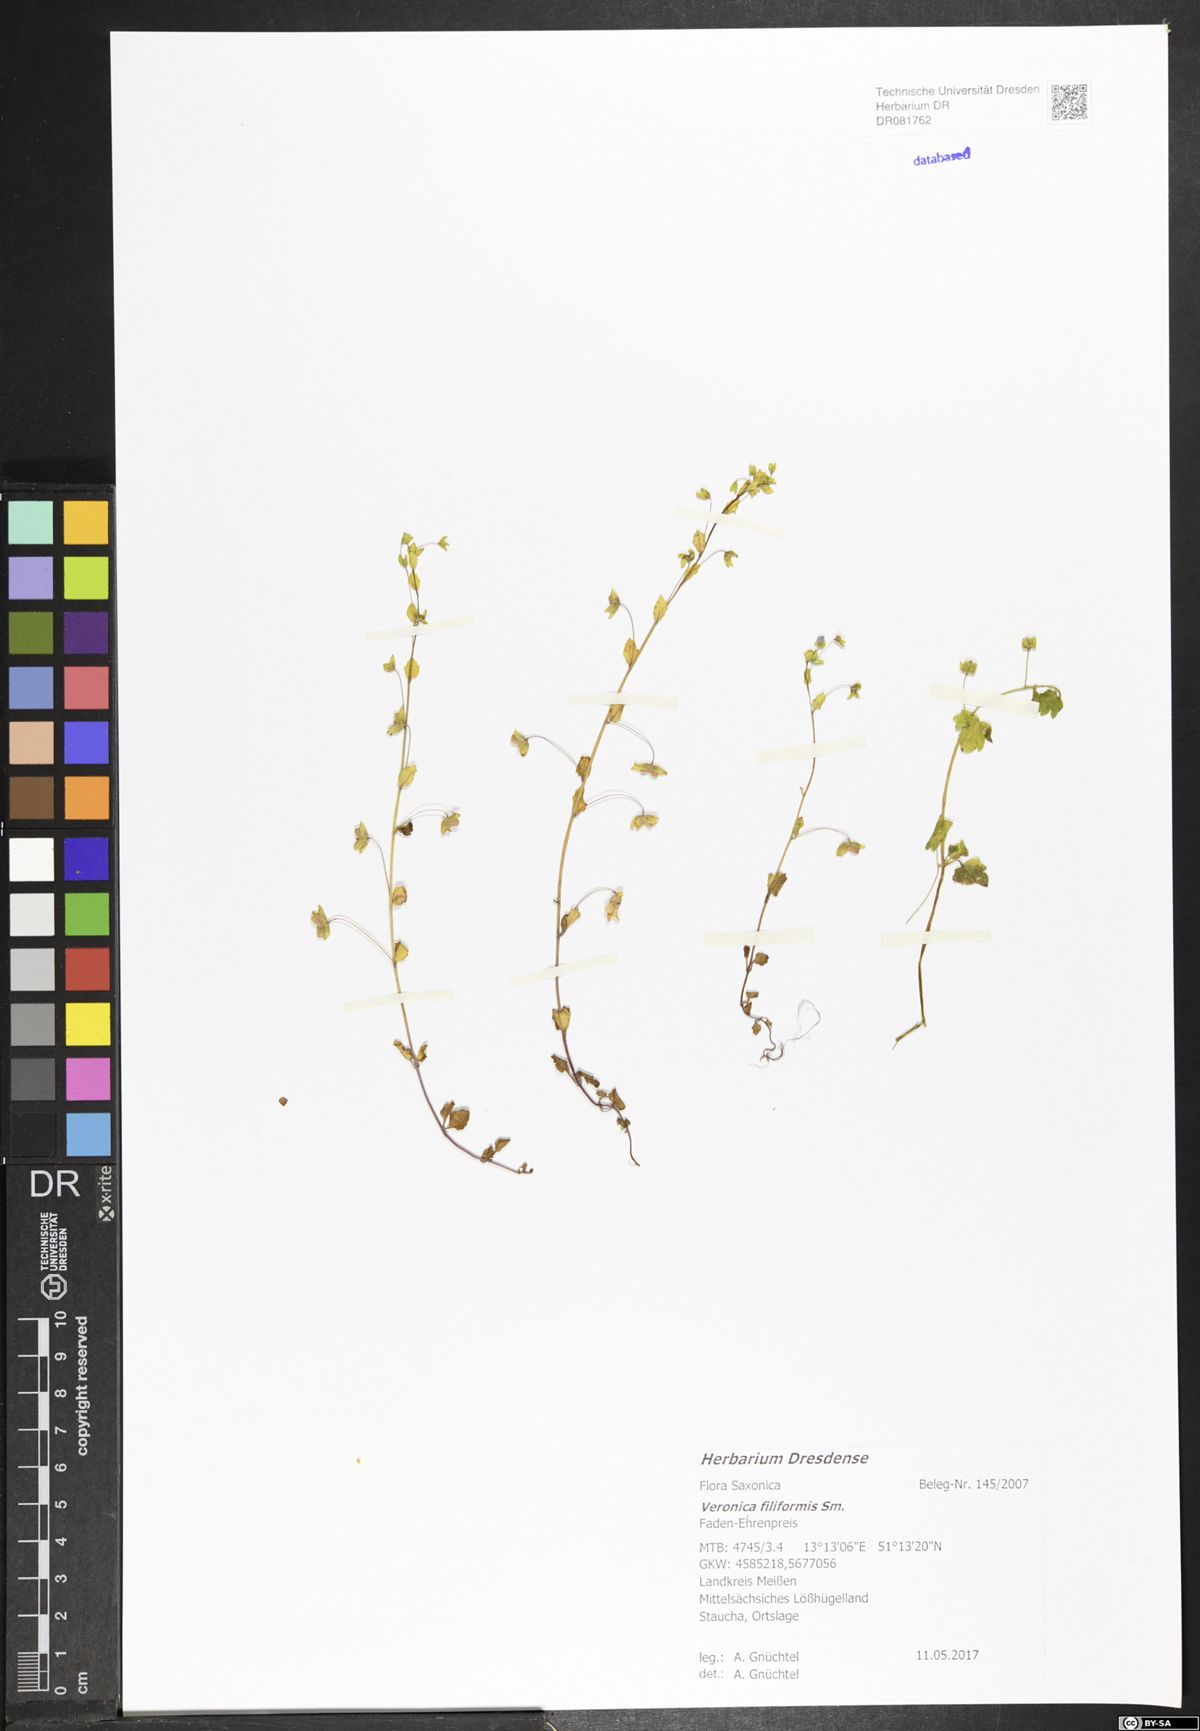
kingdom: Plantae
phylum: Tracheophyta
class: Magnoliopsida
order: Lamiales
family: Plantaginaceae
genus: Veronica
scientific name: Veronica filiformis
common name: Slender speedwell
